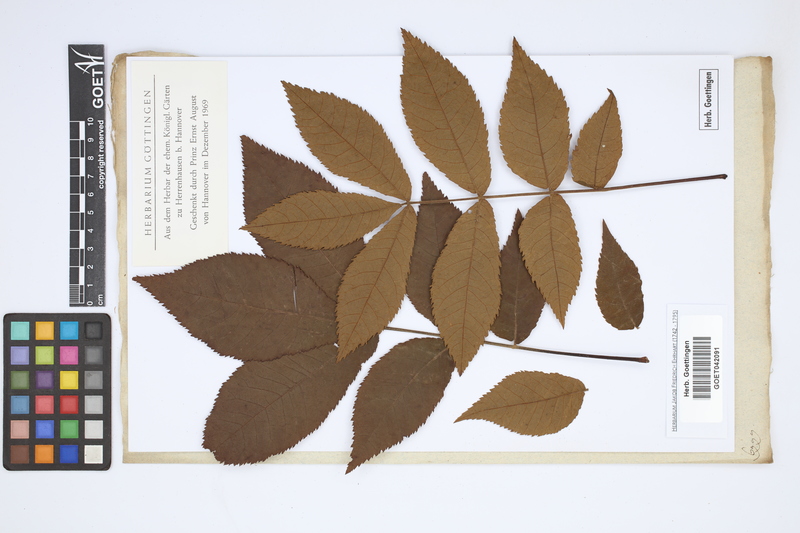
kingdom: Plantae
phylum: Tracheophyta
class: Magnoliopsida
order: Fagales
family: Juglandaceae
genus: Juglans
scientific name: Juglans
